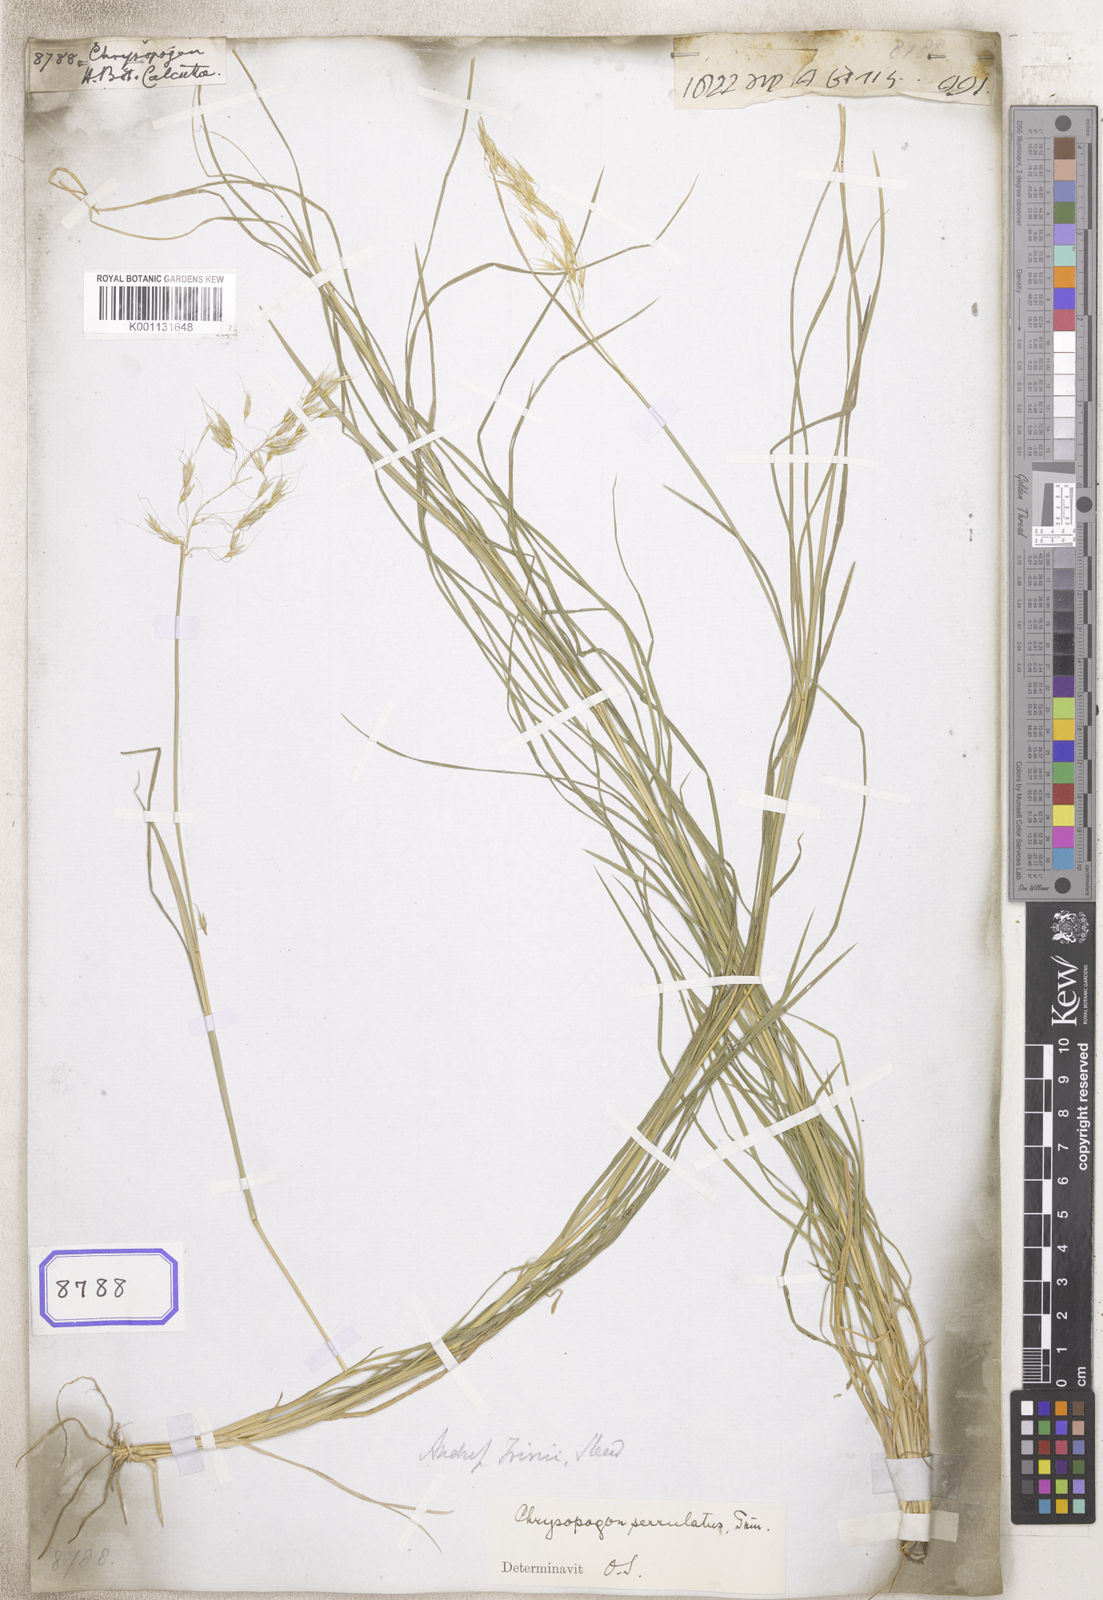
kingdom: Plantae
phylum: Tracheophyta
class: Liliopsida
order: Poales
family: Poaceae
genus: Chrysopogon
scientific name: Chrysopogon
